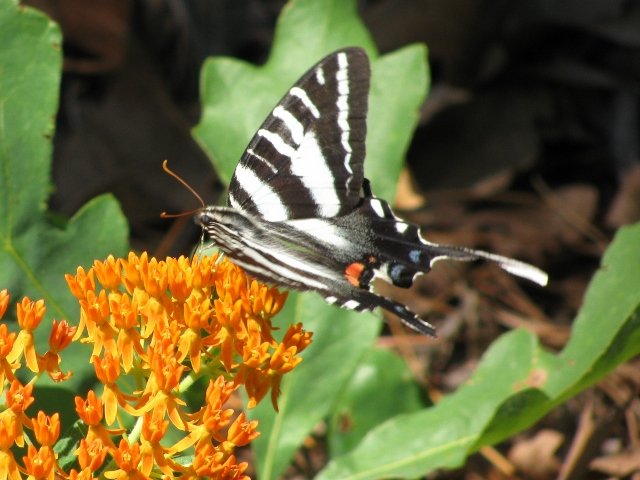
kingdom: Animalia
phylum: Arthropoda
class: Insecta
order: Lepidoptera
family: Papilionidae
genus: Protographium
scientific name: Protographium marcellus
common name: Zebra Swallowtail
